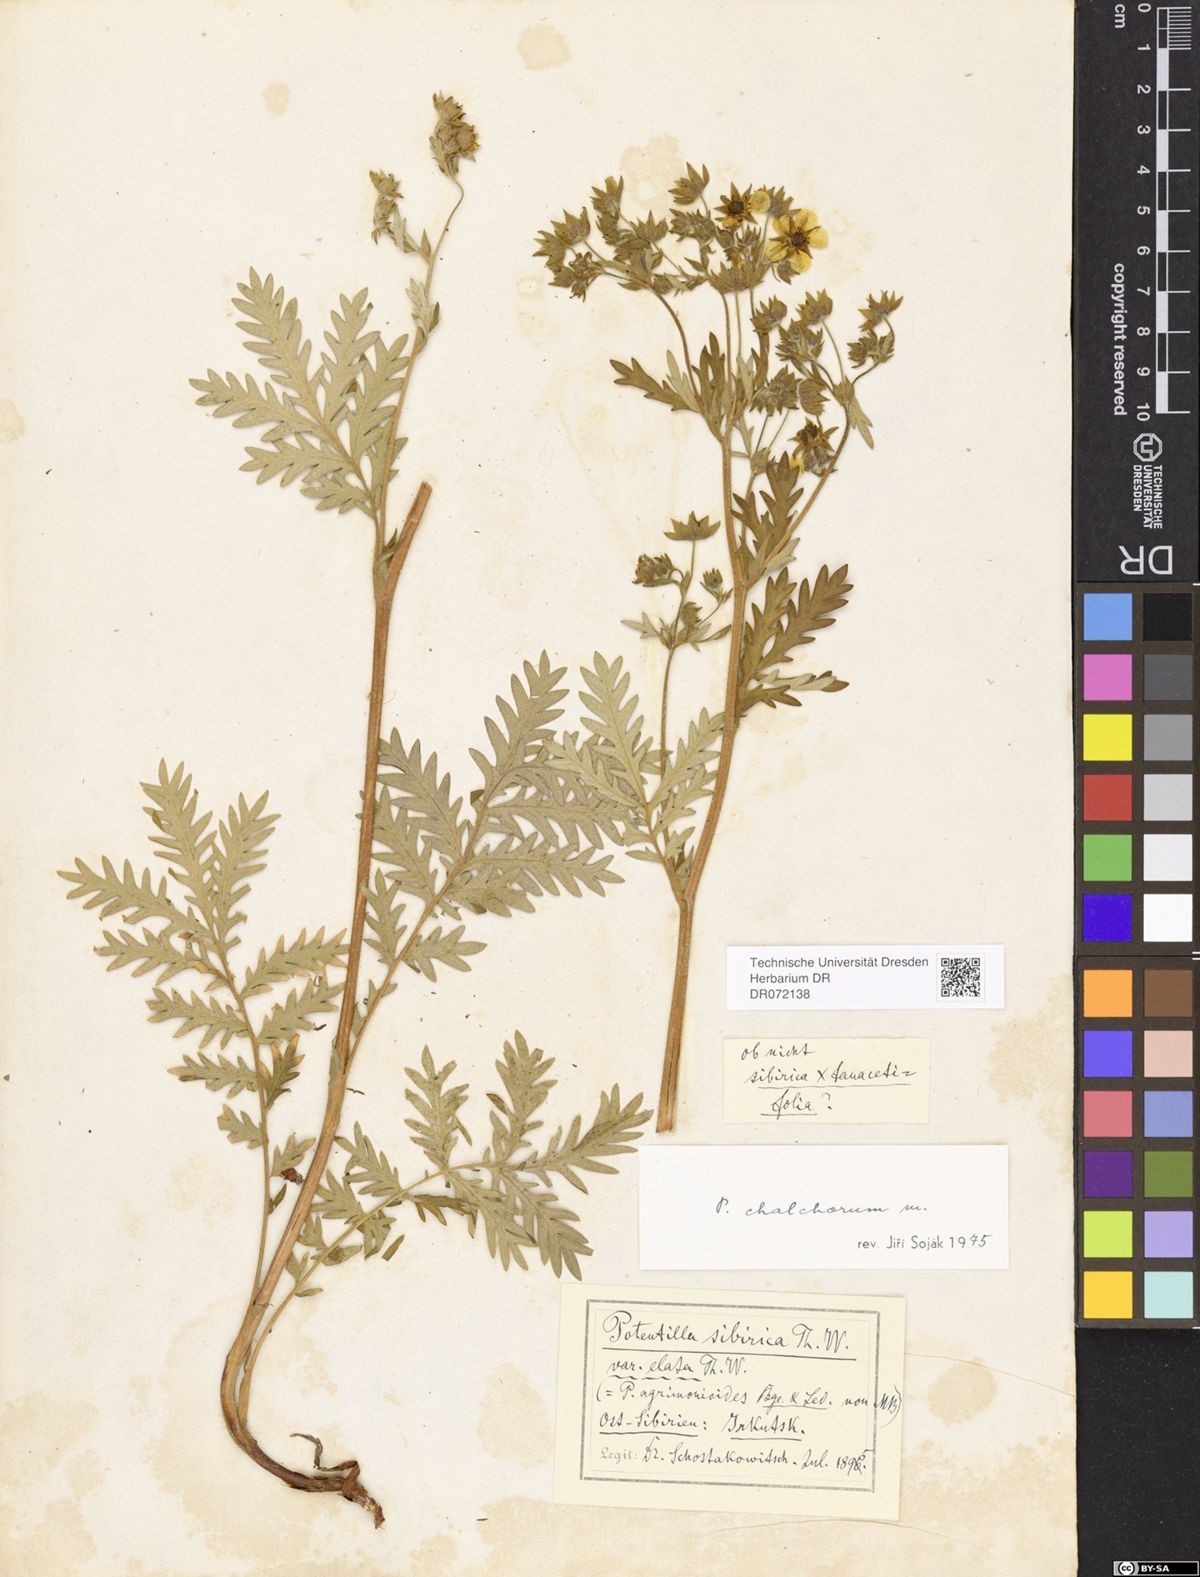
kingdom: Plantae
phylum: Tracheophyta
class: Magnoliopsida
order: Rosales
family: Rosaceae
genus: Potentilla
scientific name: Potentilla chalchorum
